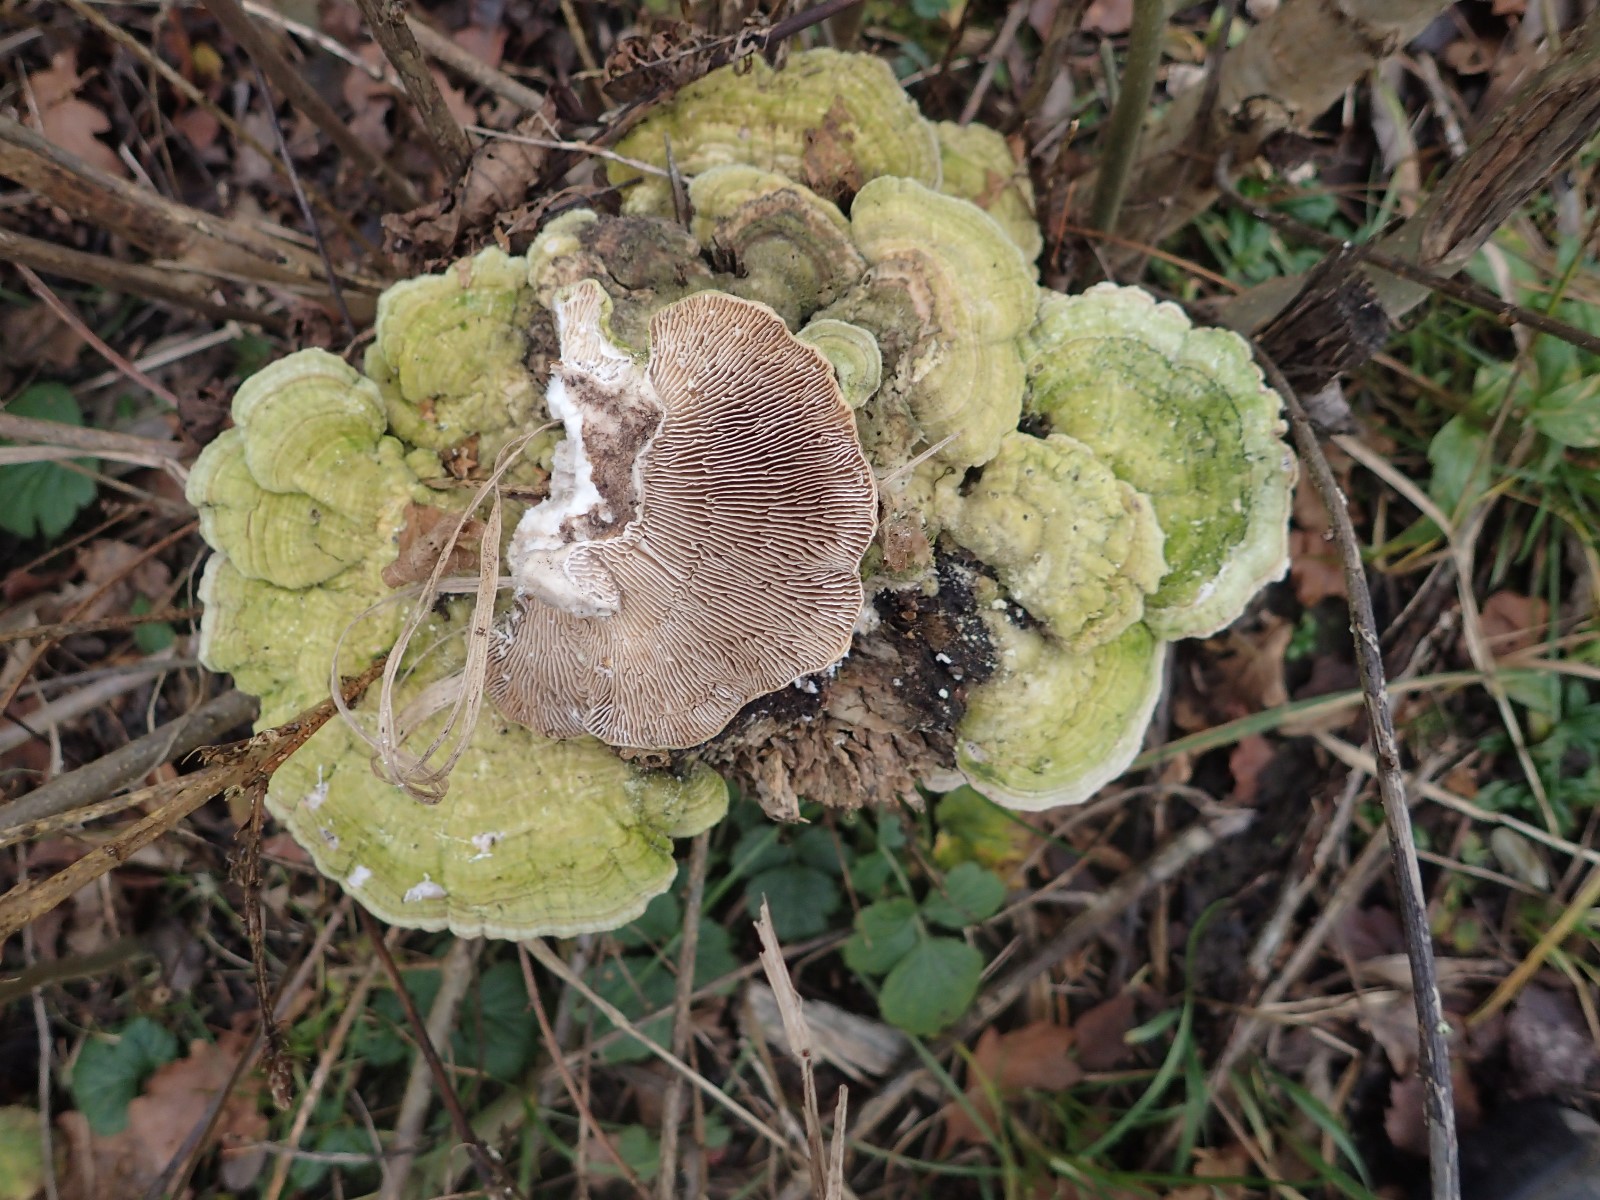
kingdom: Fungi
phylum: Basidiomycota
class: Agaricomycetes
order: Polyporales
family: Polyporaceae
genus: Lenzites
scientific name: Lenzites betulinus
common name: birke-læderporesvamp
